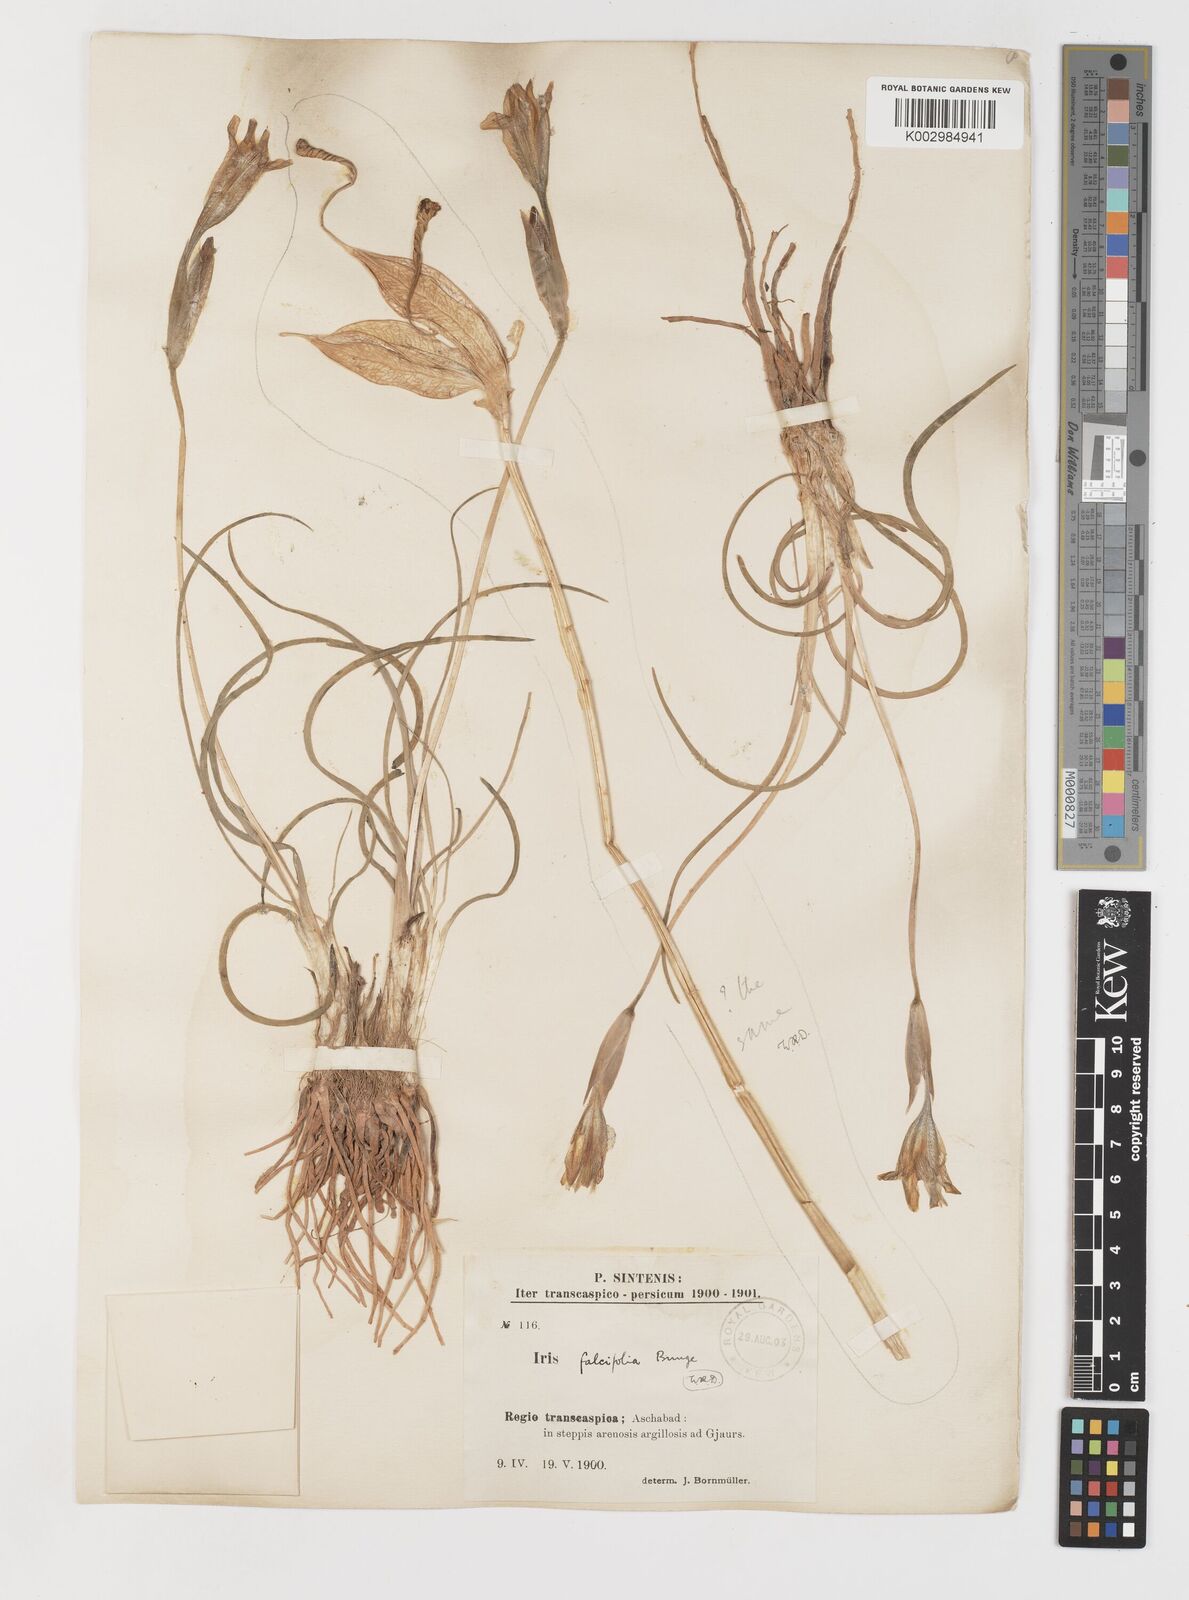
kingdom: Plantae
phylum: Tracheophyta
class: Liliopsida
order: Asparagales
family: Iridaceae
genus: Iris
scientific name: Iris longiscapa
